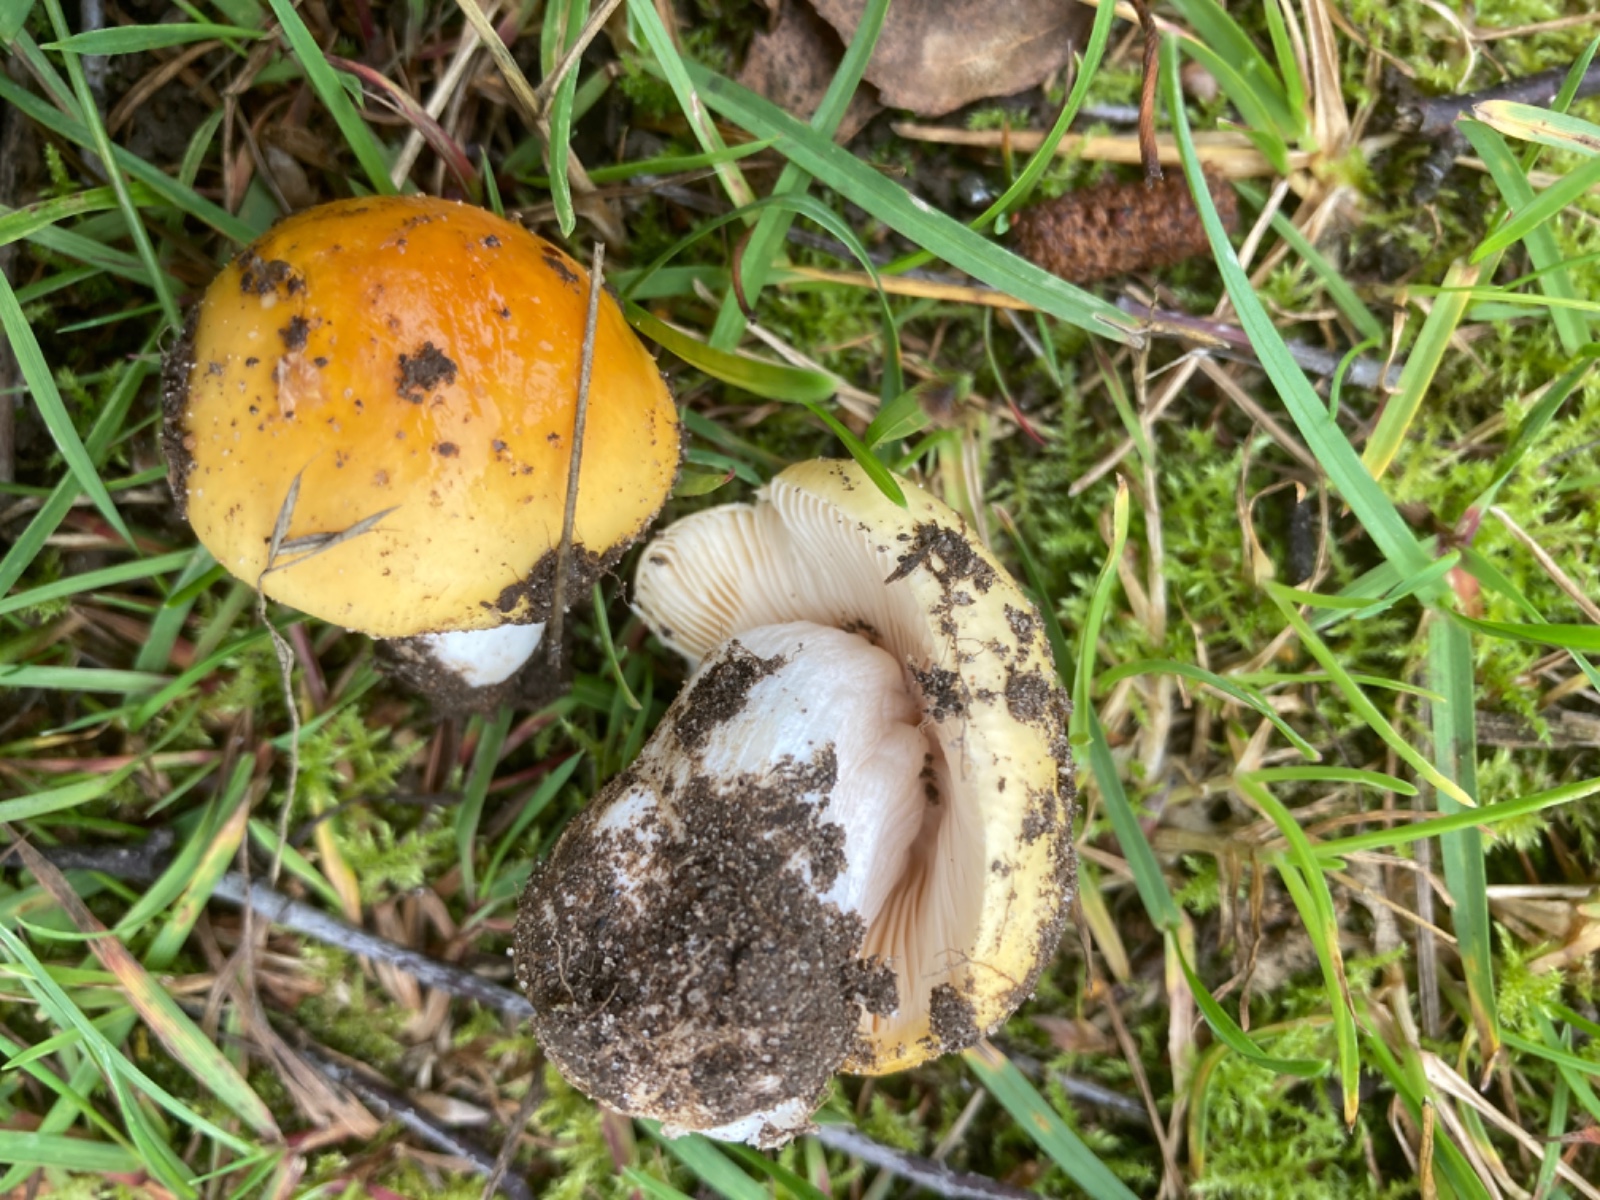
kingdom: Fungi
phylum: Basidiomycota
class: Agaricomycetes
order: Russulales
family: Russulaceae
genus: Russula
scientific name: Russula risigallina
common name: abrikos-skørhat
